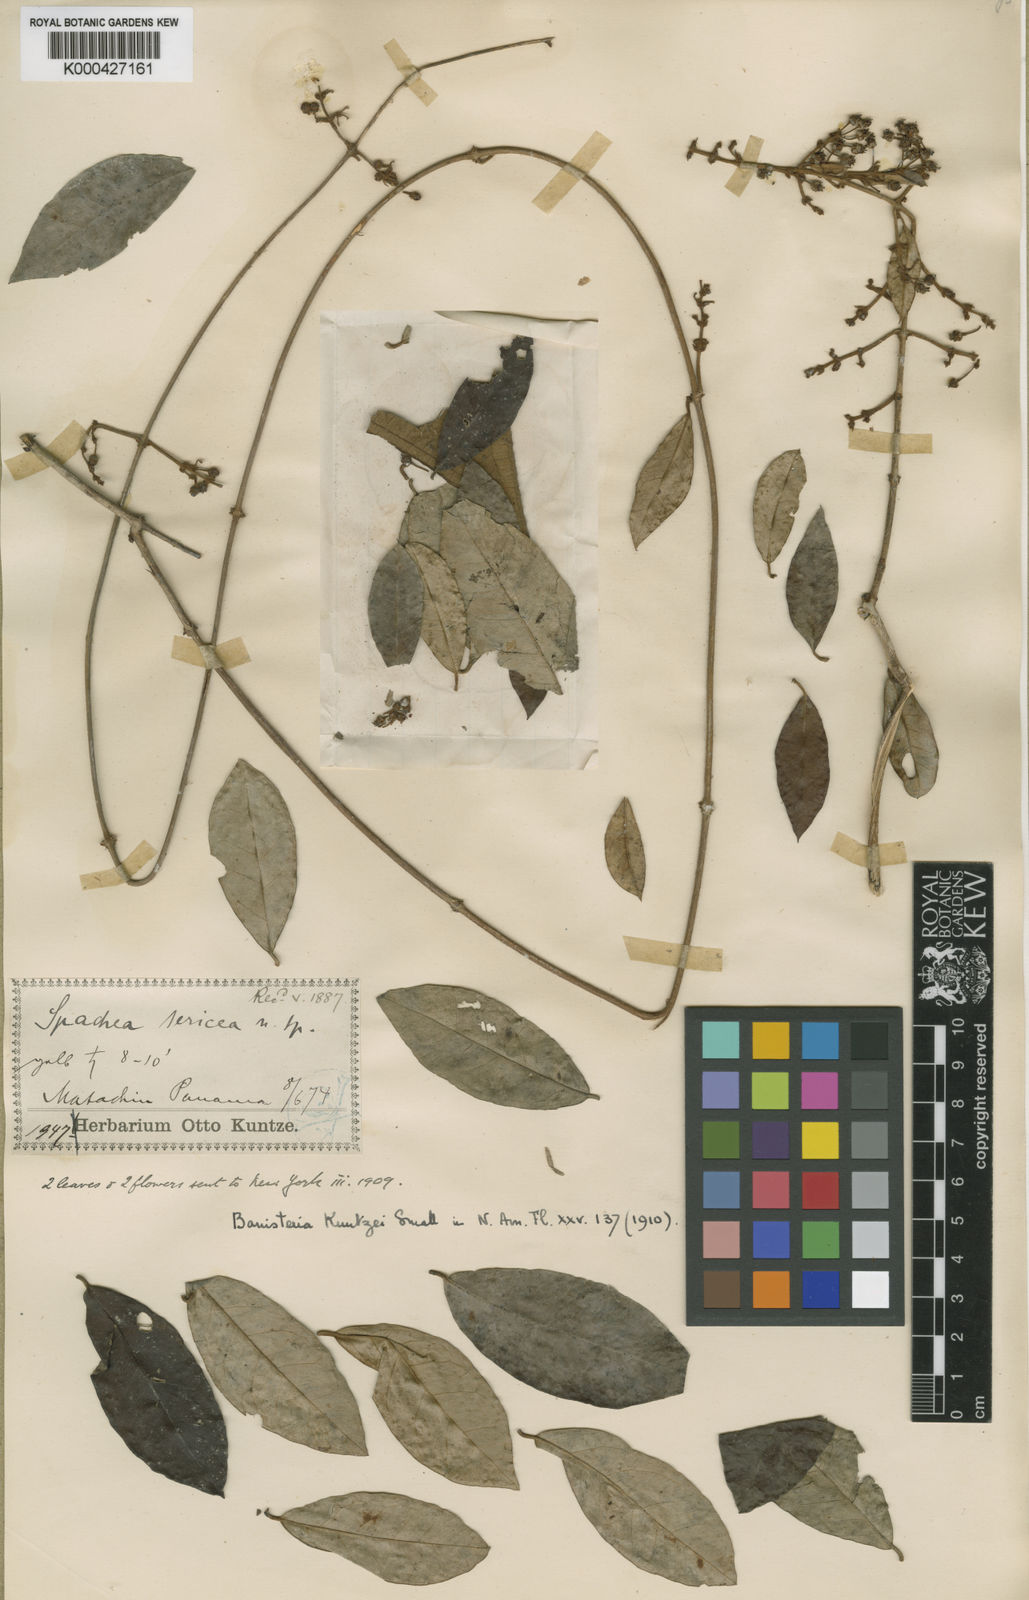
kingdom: Plantae
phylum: Tracheophyta
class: Magnoliopsida
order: Malpighiales
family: Malpighiaceae
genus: Heteropterys
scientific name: Heteropterys obovata
